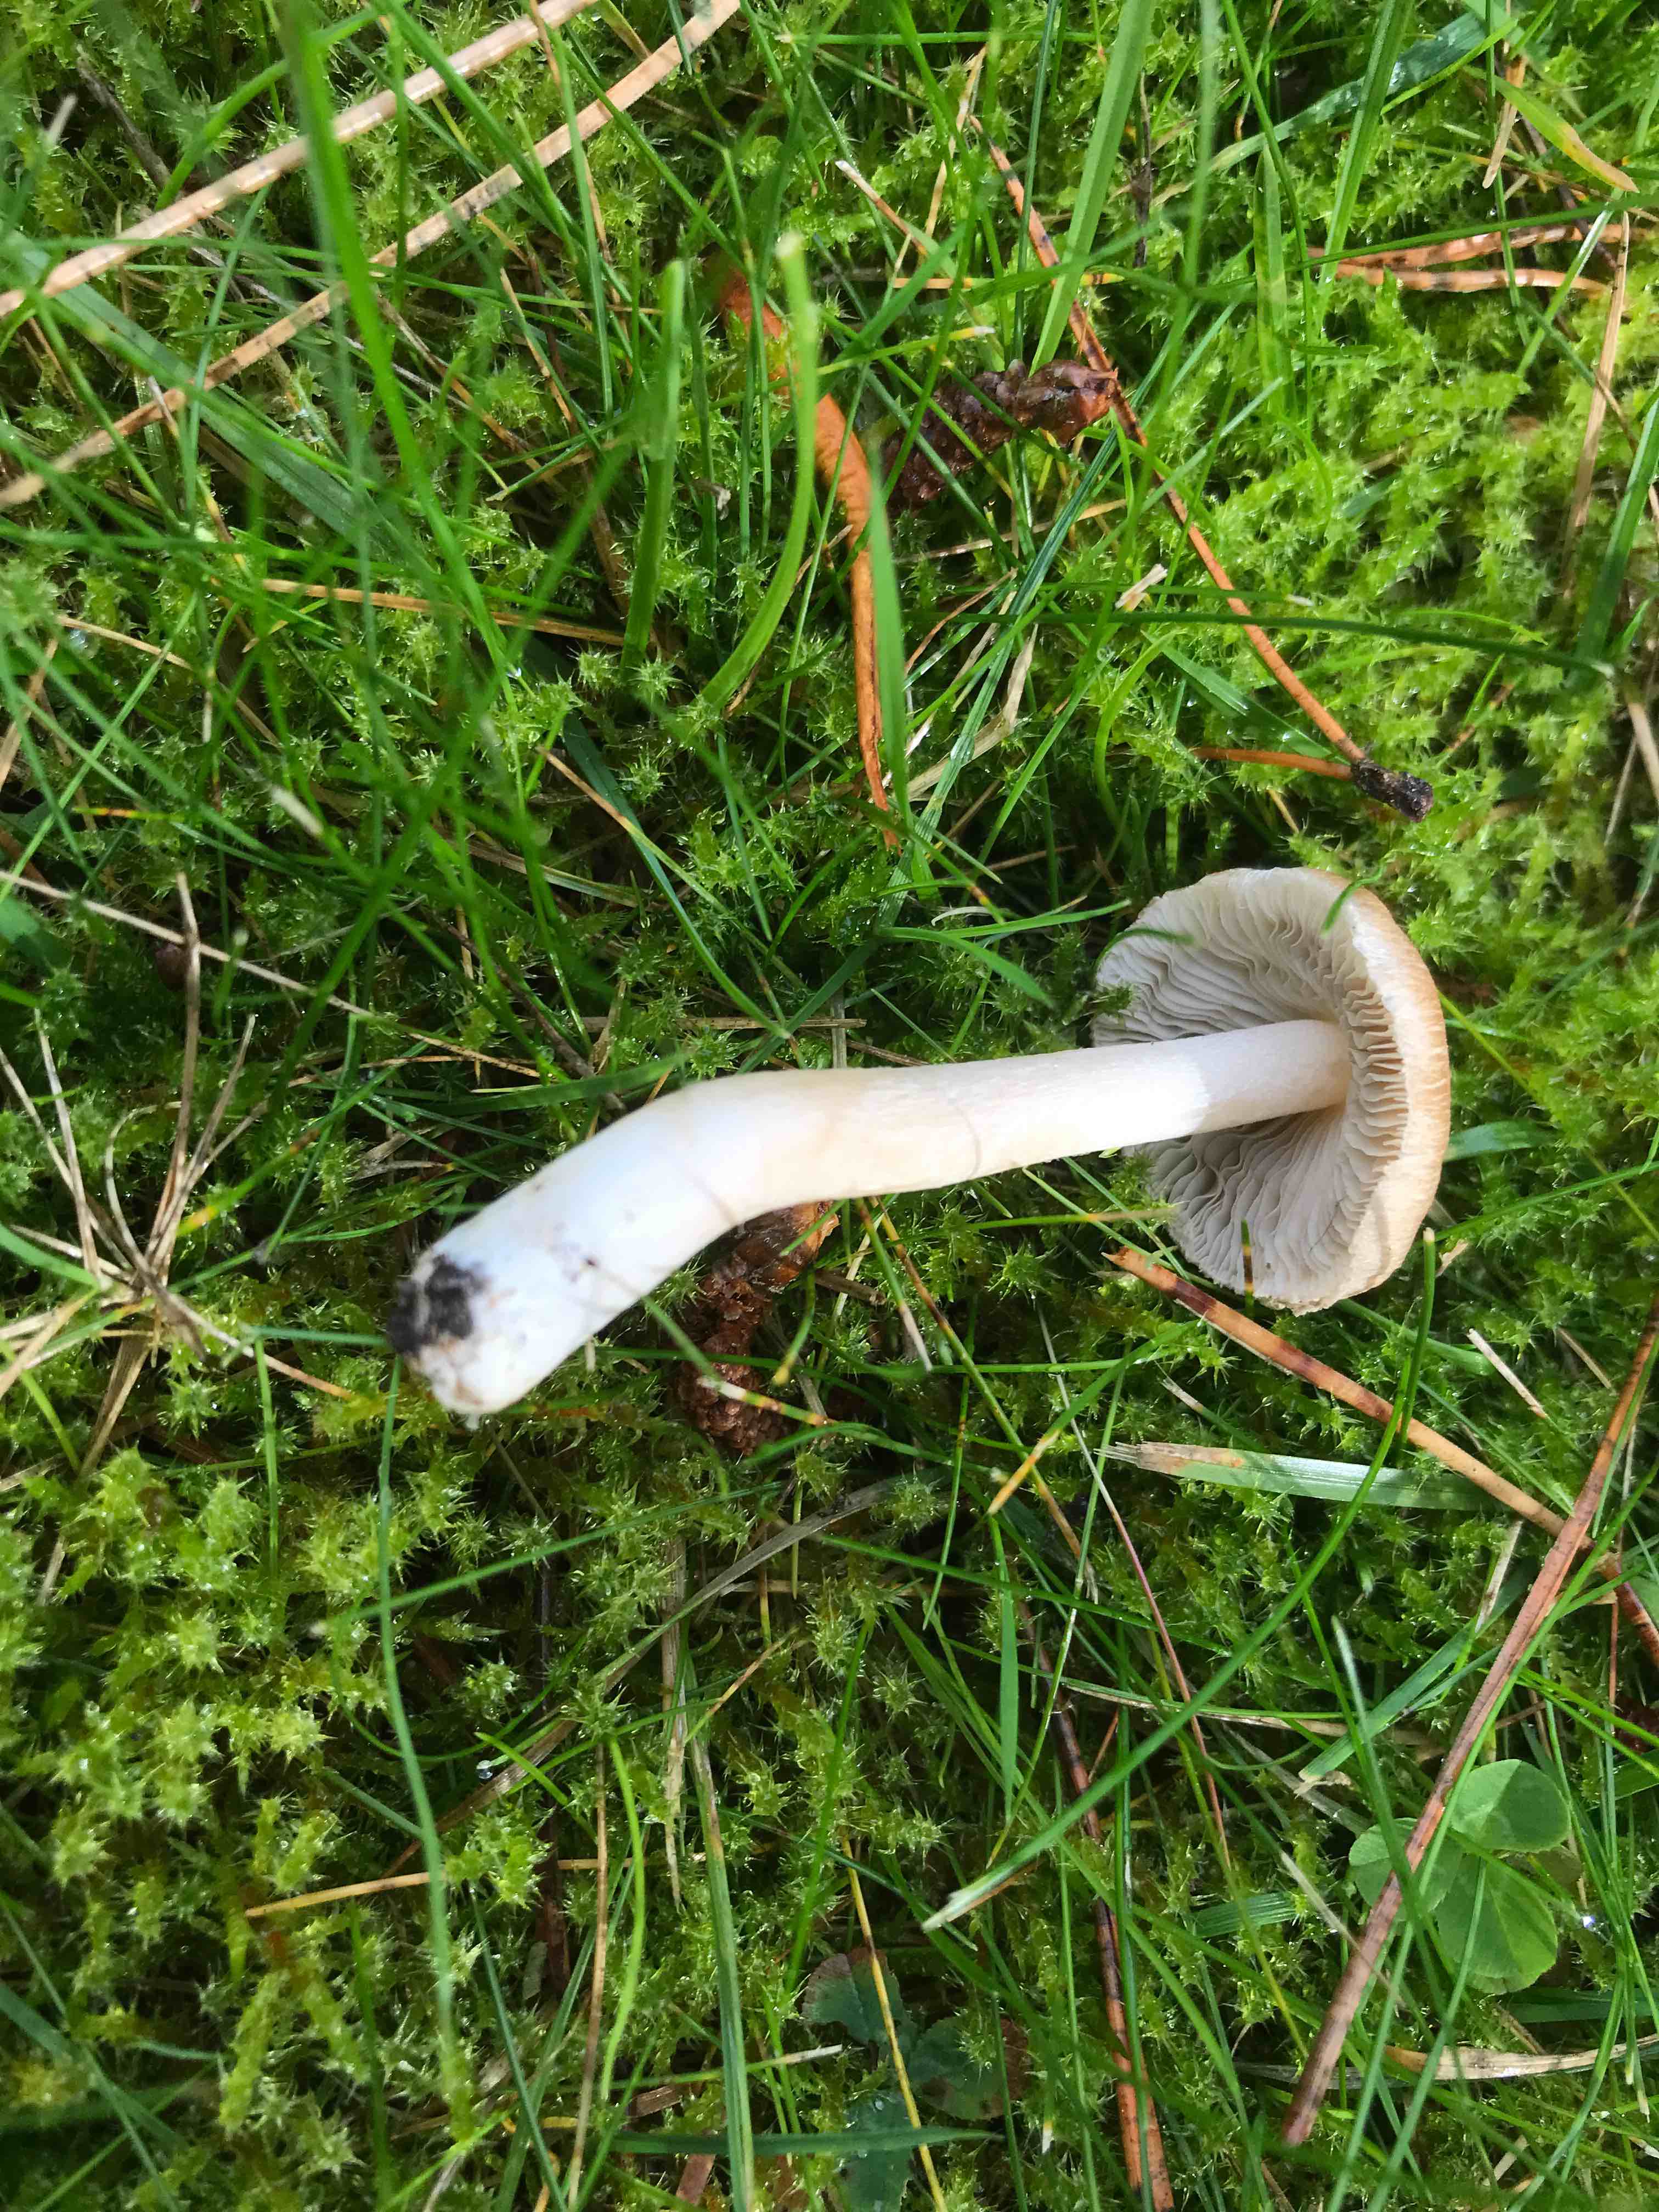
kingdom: Fungi
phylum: Basidiomycota
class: Agaricomycetes
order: Agaricales
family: Inocybaceae
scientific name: Inocybaceae
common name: trævlhatfamilien
